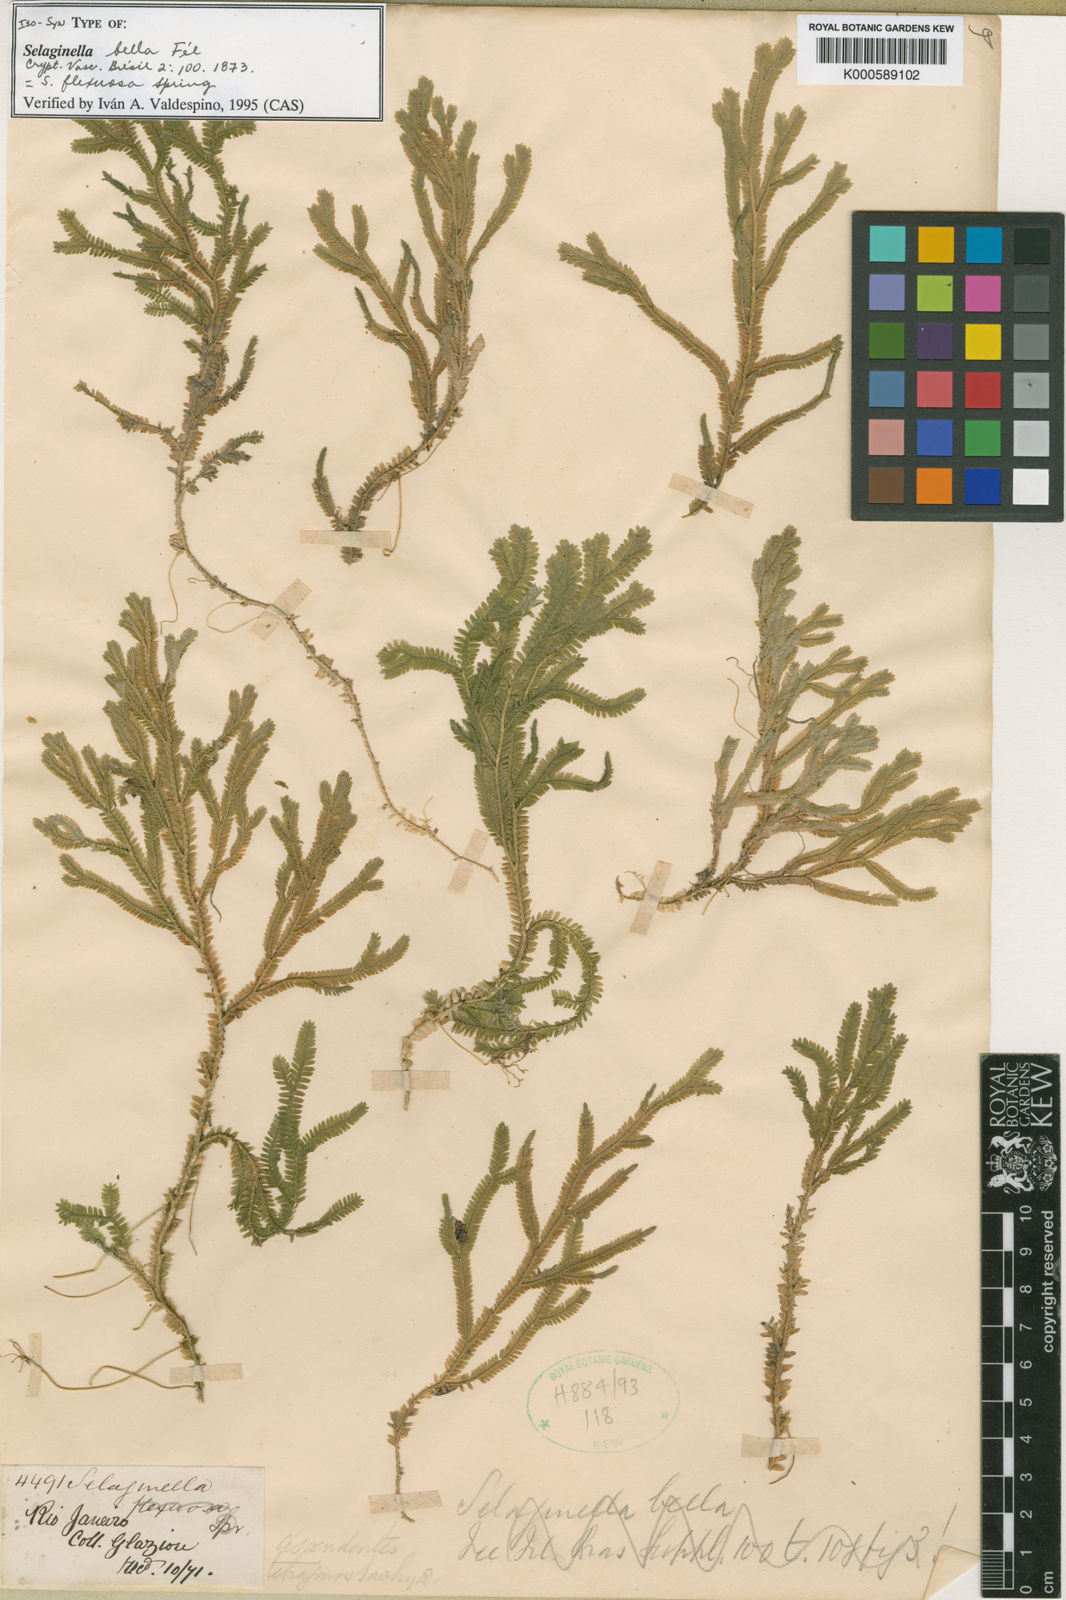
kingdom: Plantae
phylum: Tracheophyta
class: Lycopodiopsida
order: Selaginellales
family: Selaginellaceae
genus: Selaginella
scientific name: Selaginella flexuosa
